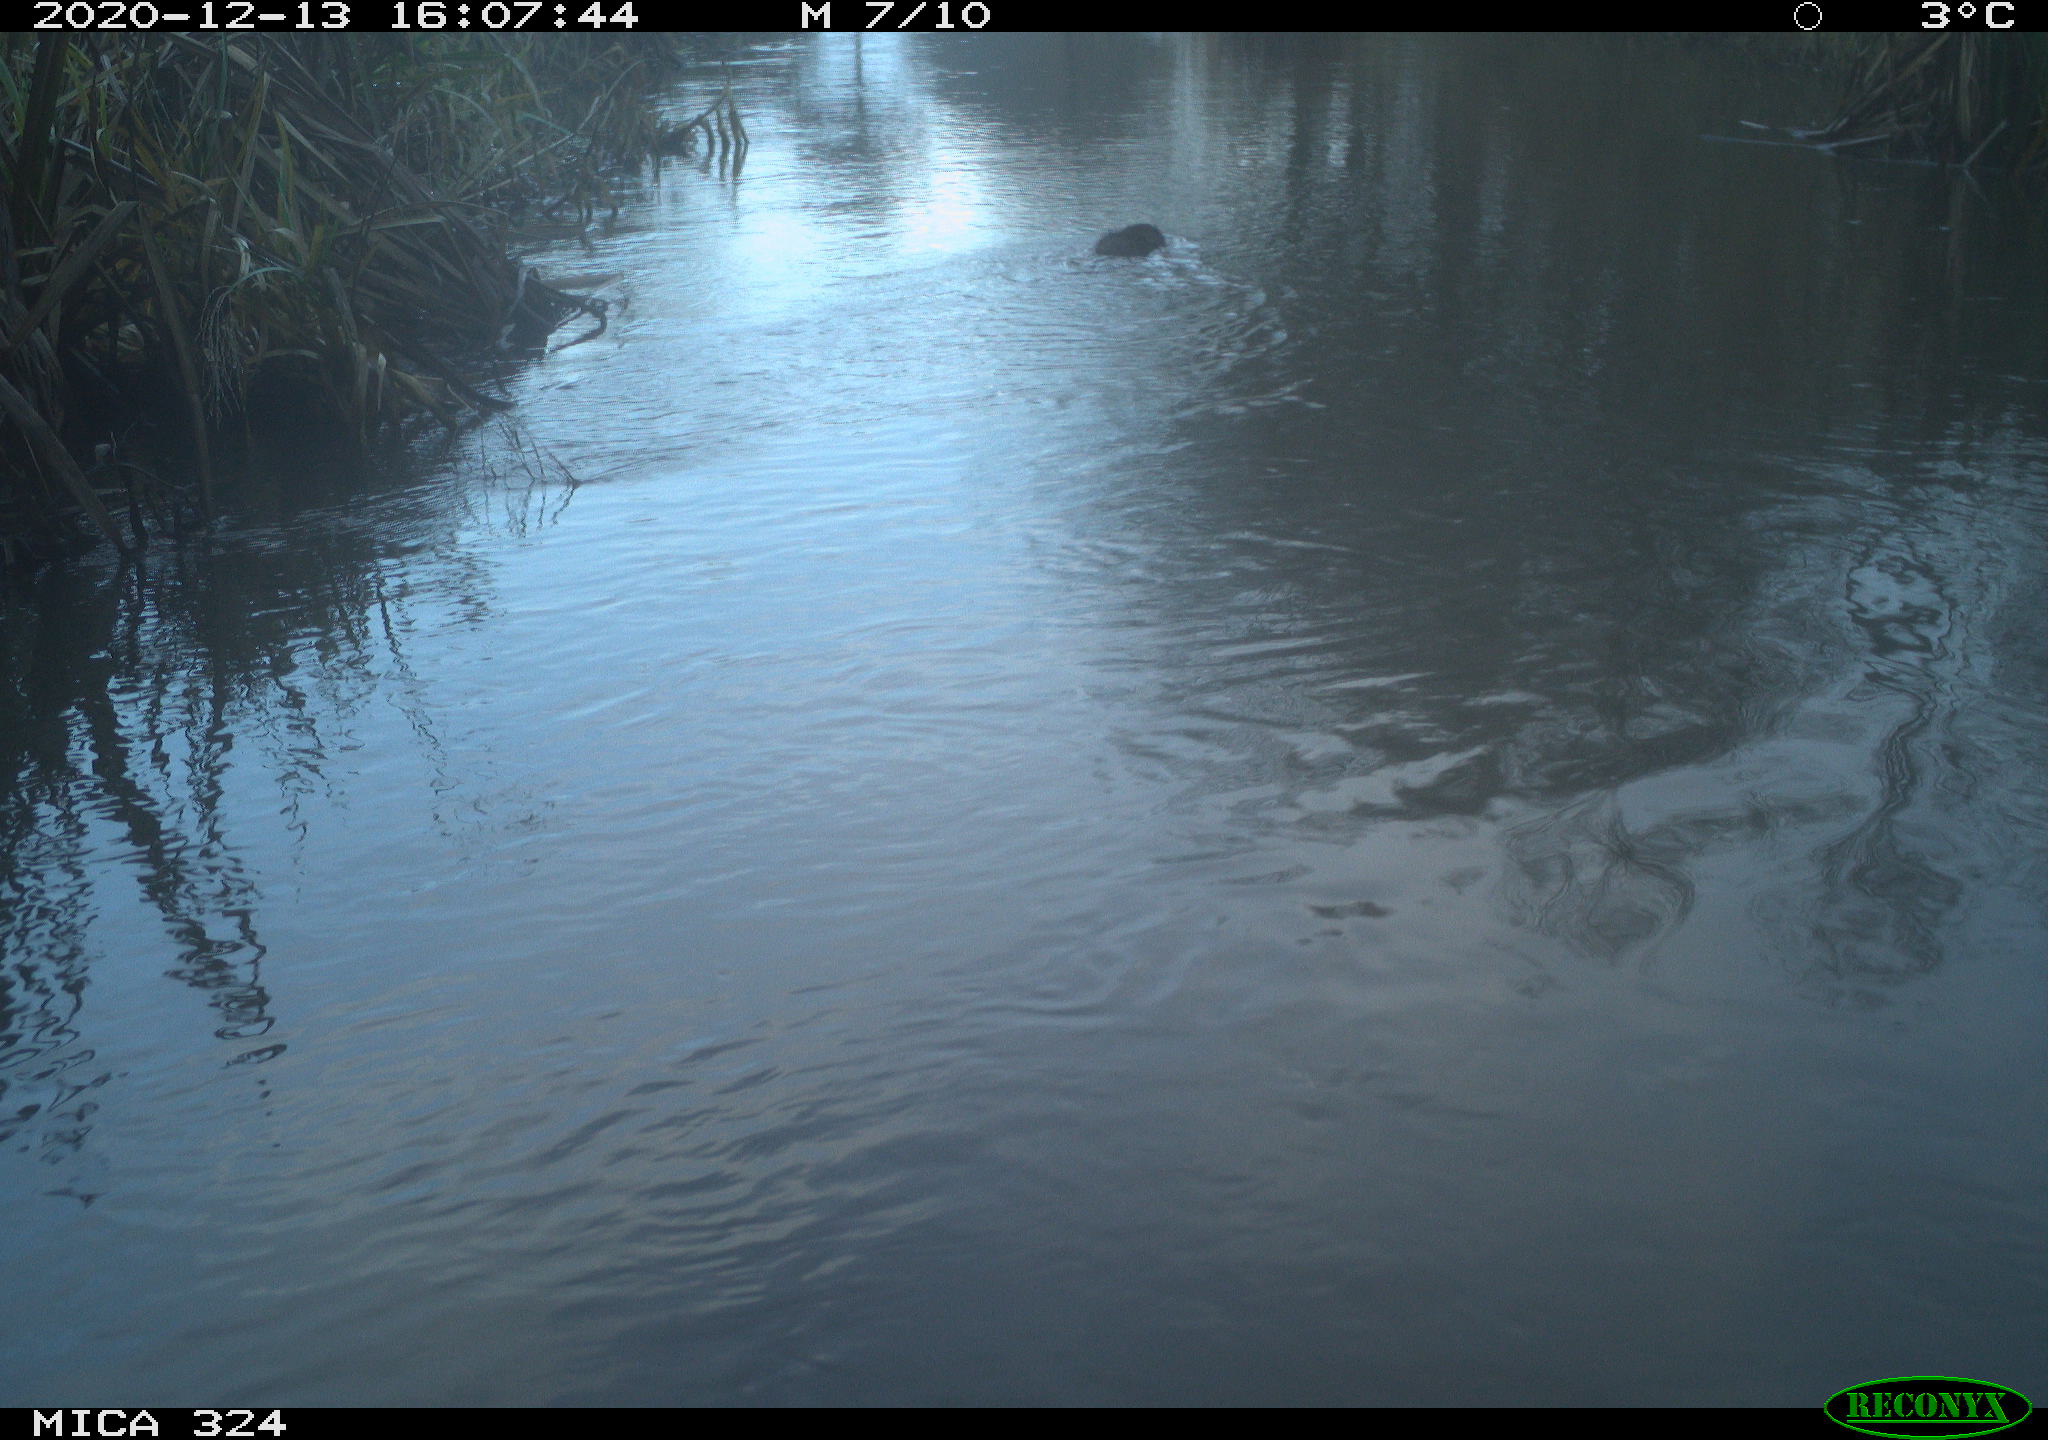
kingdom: Animalia
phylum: Chordata
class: Mammalia
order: Rodentia
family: Cricetidae
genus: Ondatra
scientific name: Ondatra zibethicus
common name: Muskrat
